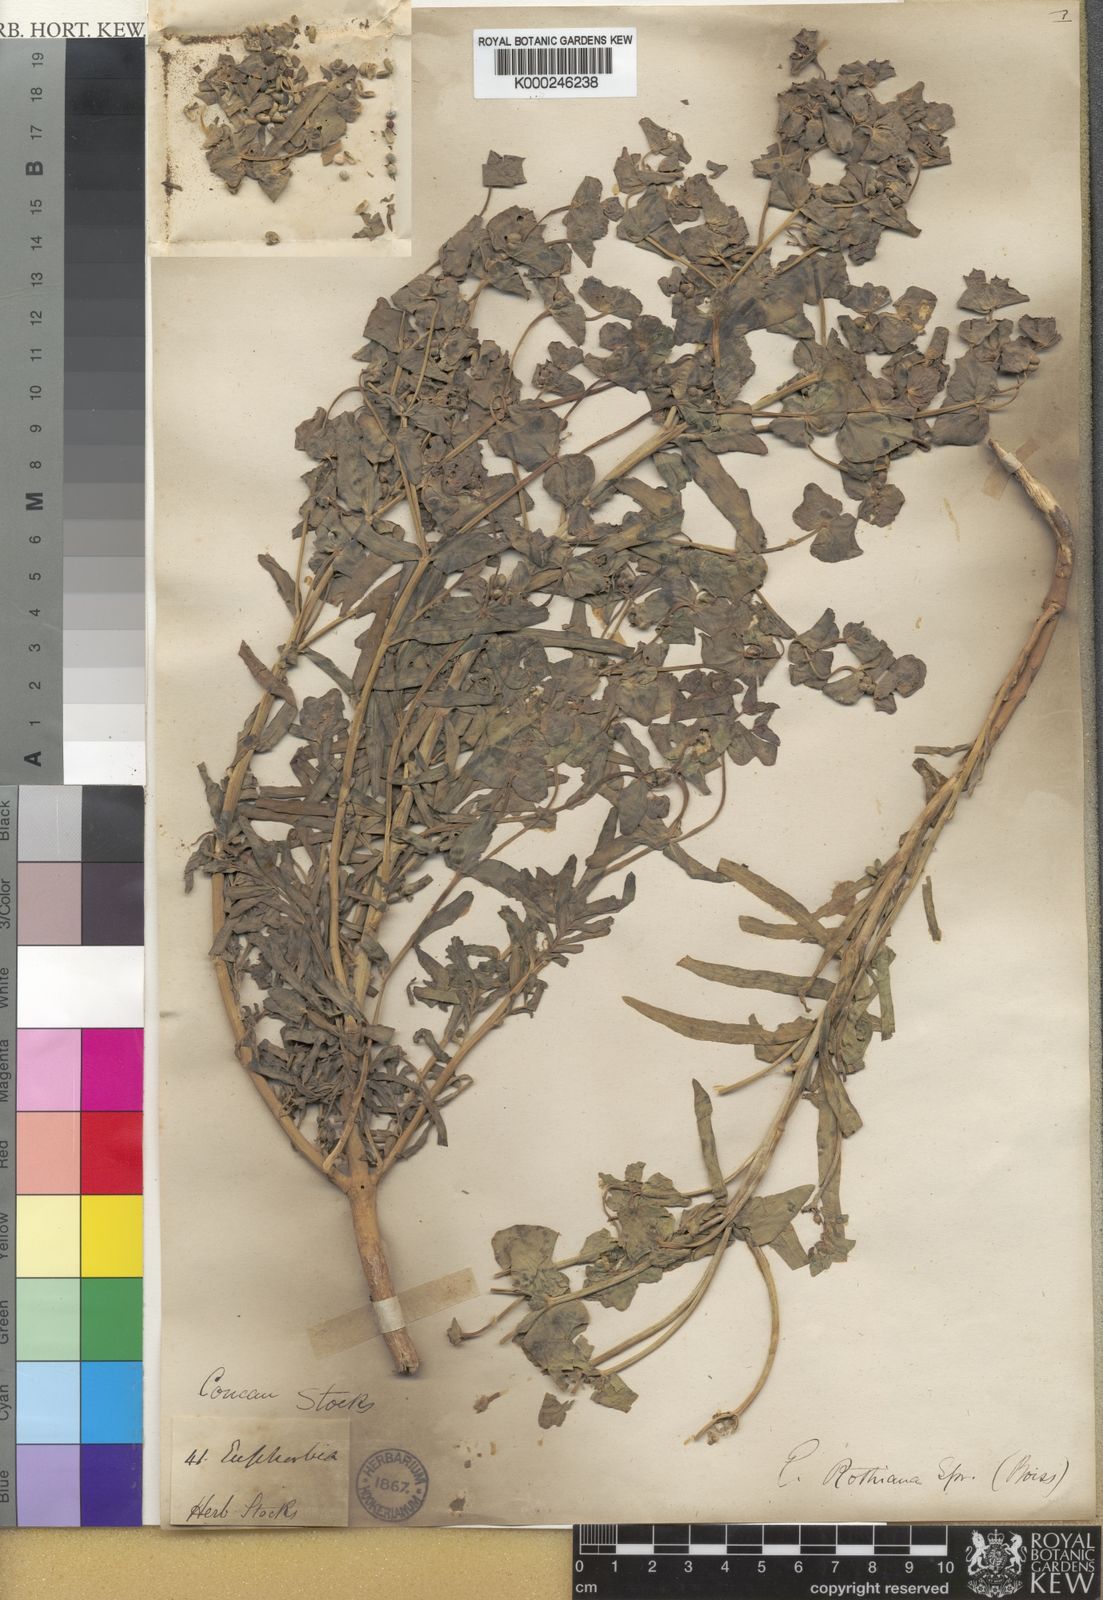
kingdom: Plantae
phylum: Tracheophyta
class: Magnoliopsida
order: Malpighiales
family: Euphorbiaceae
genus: Euphorbia
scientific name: Euphorbia rothiana
